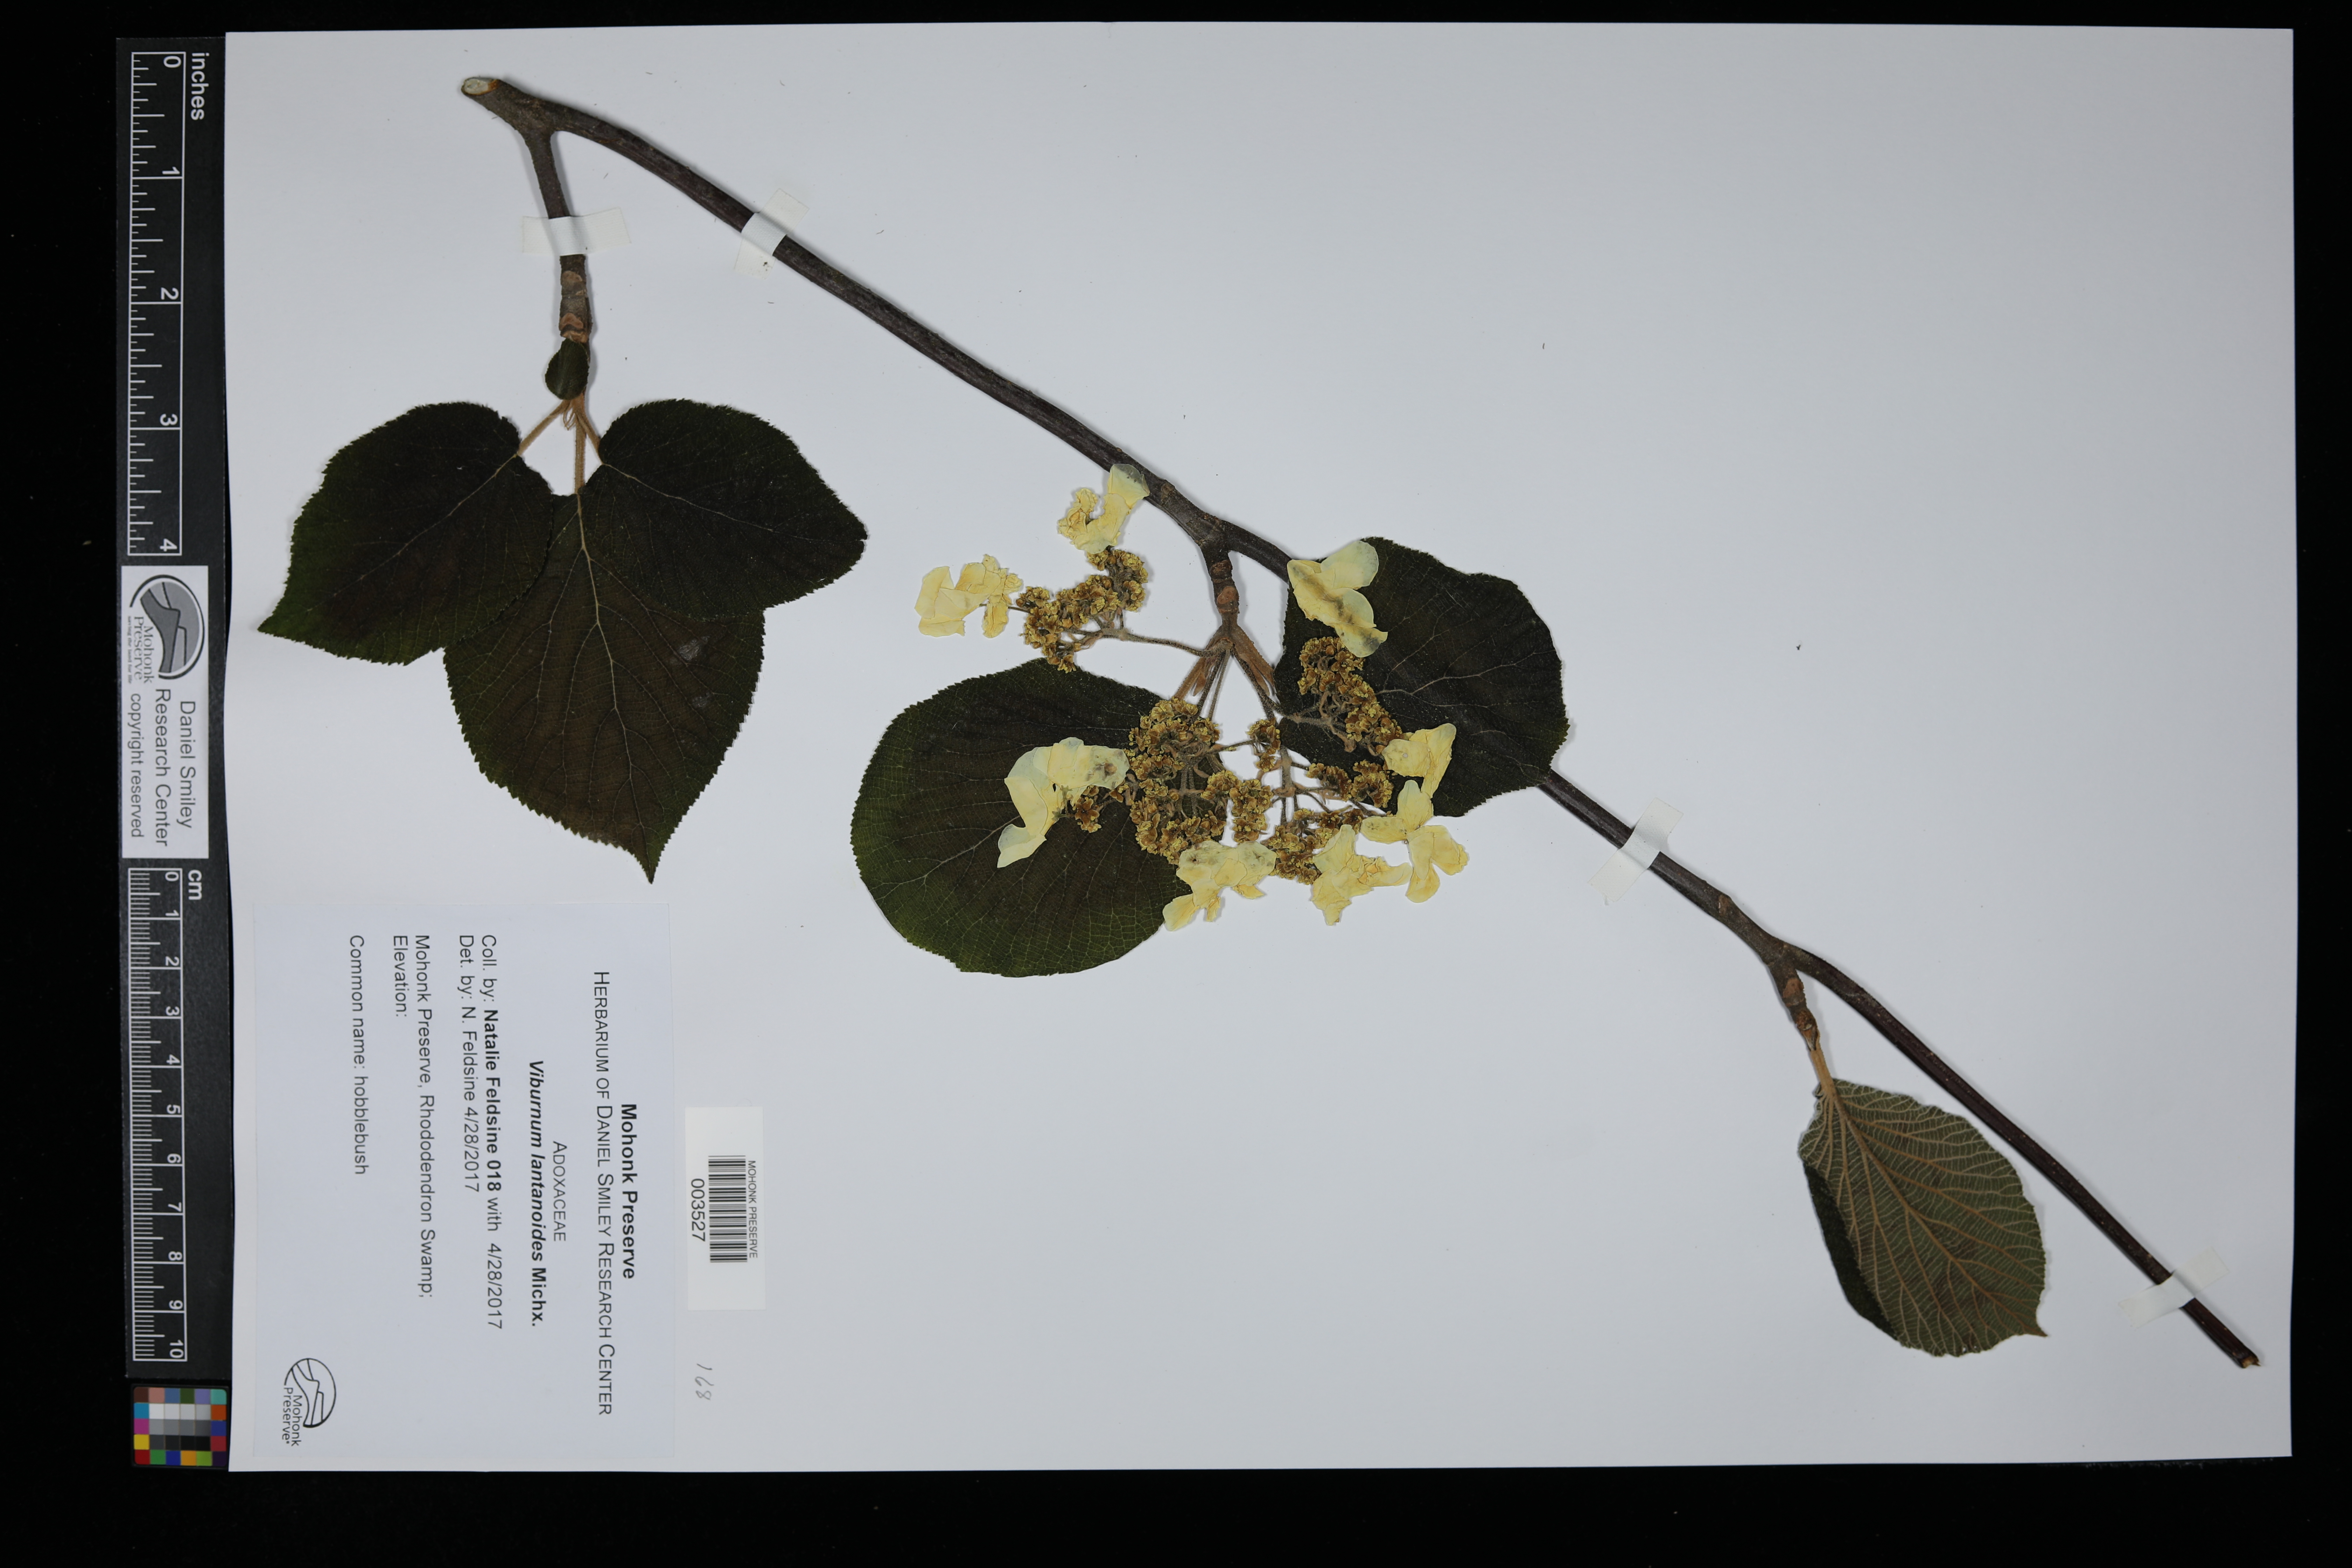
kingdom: Plantae
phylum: Tracheophyta
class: Magnoliopsida
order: Dipsacales
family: Viburnaceae
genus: Viburnum
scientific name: Viburnum lantanoides
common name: Hobblebush
